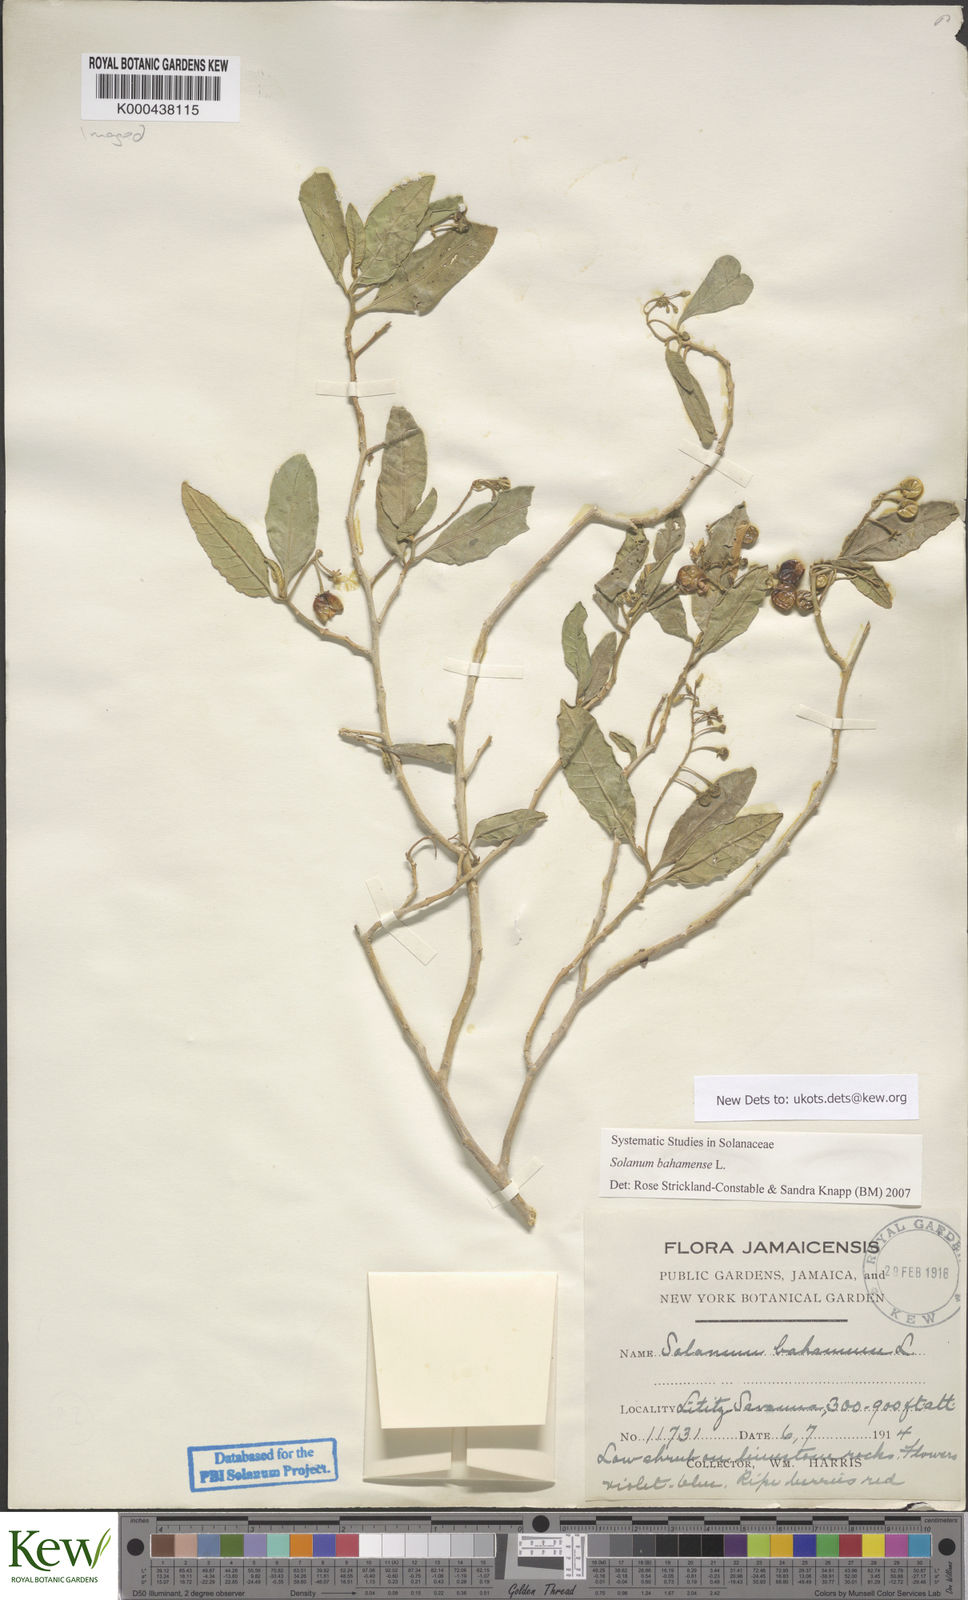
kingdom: Plantae
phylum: Tracheophyta
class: Magnoliopsida
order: Solanales
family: Solanaceae
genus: Solanum
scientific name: Solanum bahamense
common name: Canker-berry
